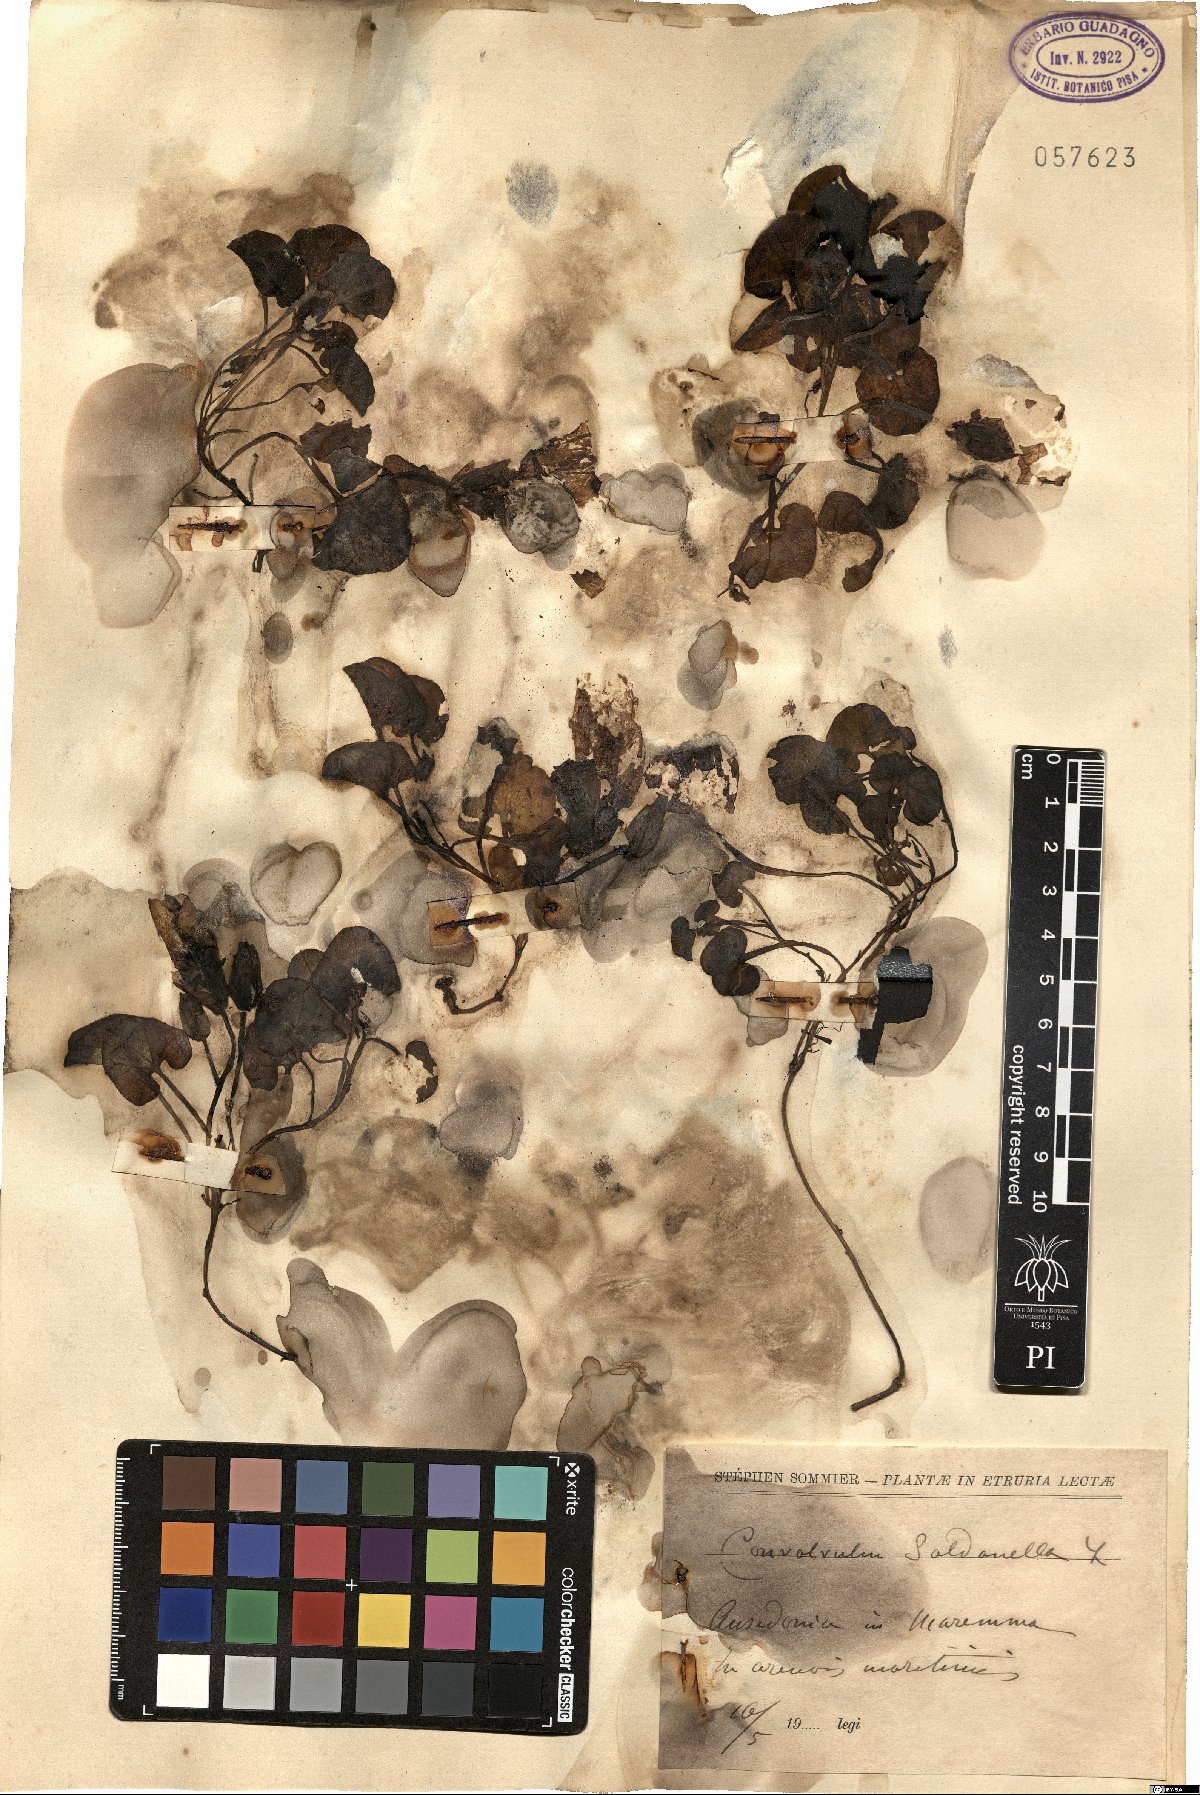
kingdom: Plantae
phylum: Tracheophyta
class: Magnoliopsida
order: Solanales
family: Convolvulaceae
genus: Calystegia
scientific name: Calystegia soldanella
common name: Sea bindweed
